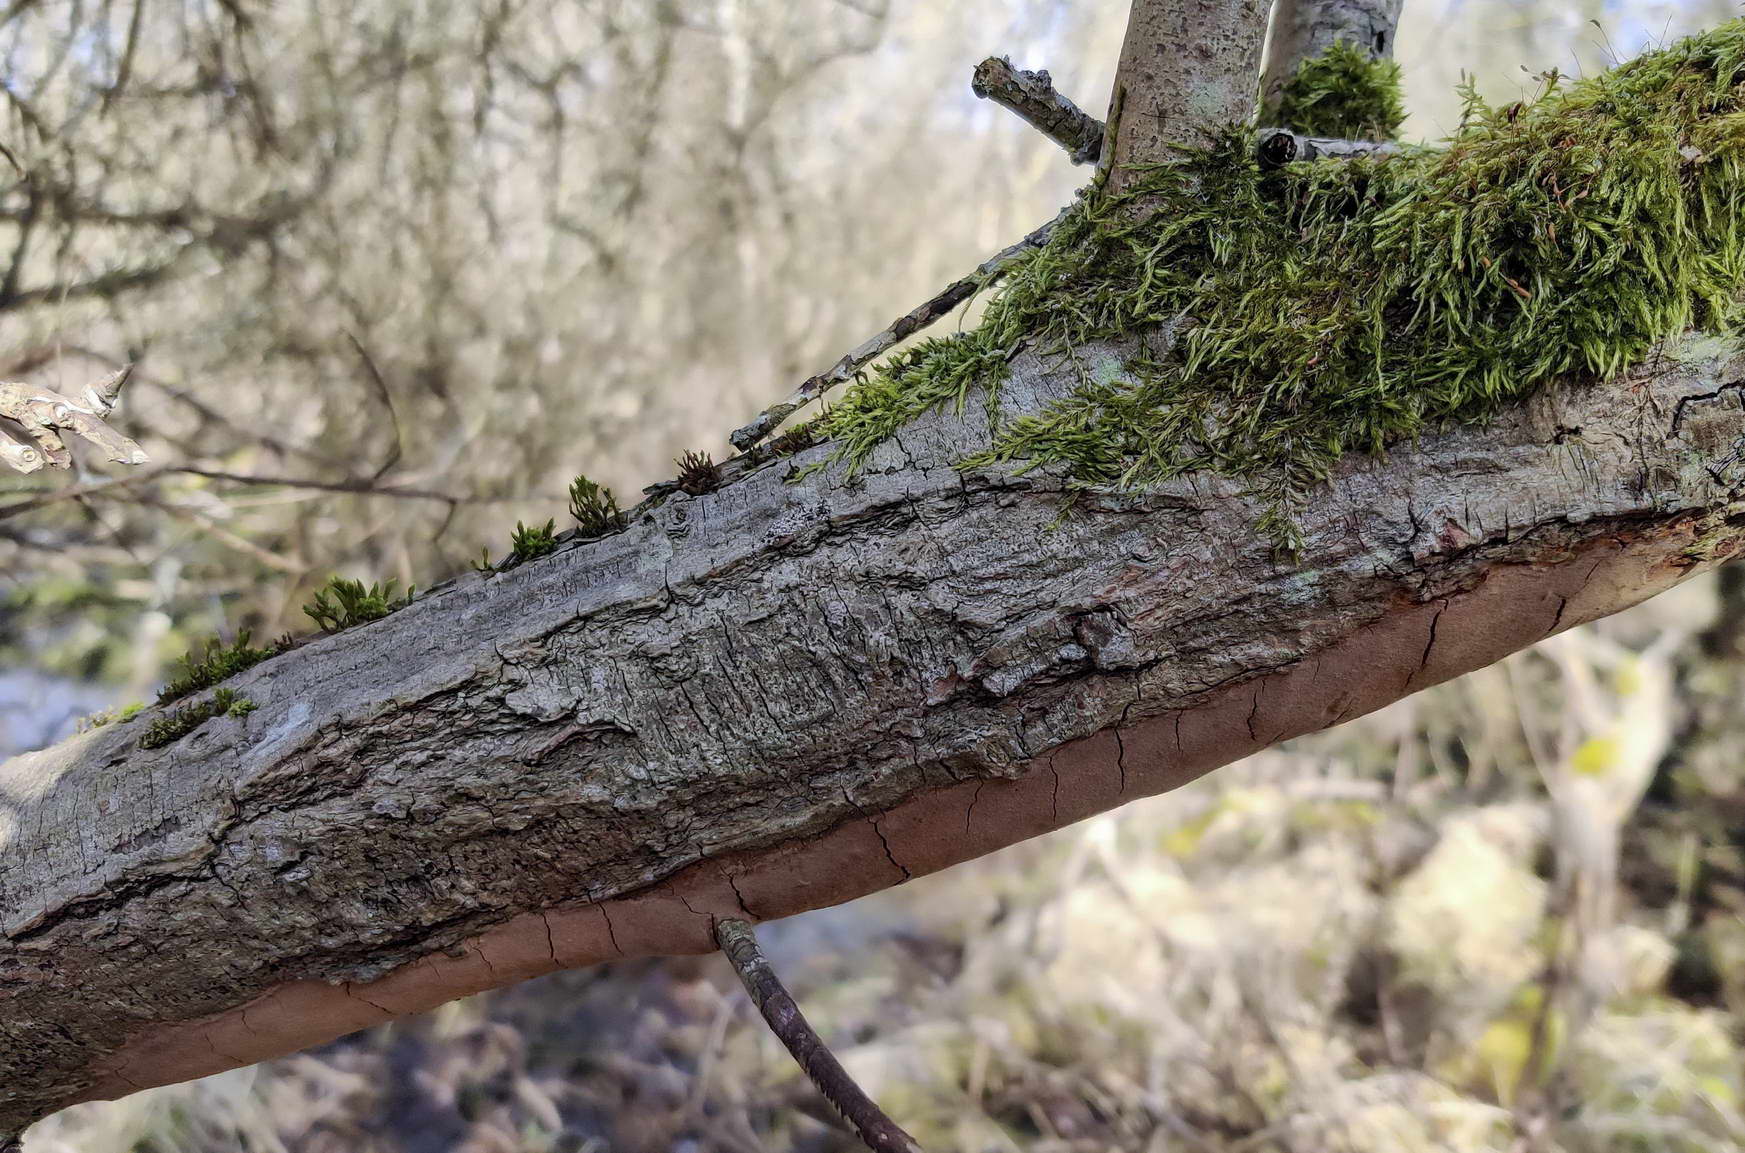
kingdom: Fungi
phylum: Basidiomycota
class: Agaricomycetes
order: Hymenochaetales
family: Hymenochaetaceae
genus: Fomitiporia
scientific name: Fomitiporia punctata
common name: pude-ildporesvamp
